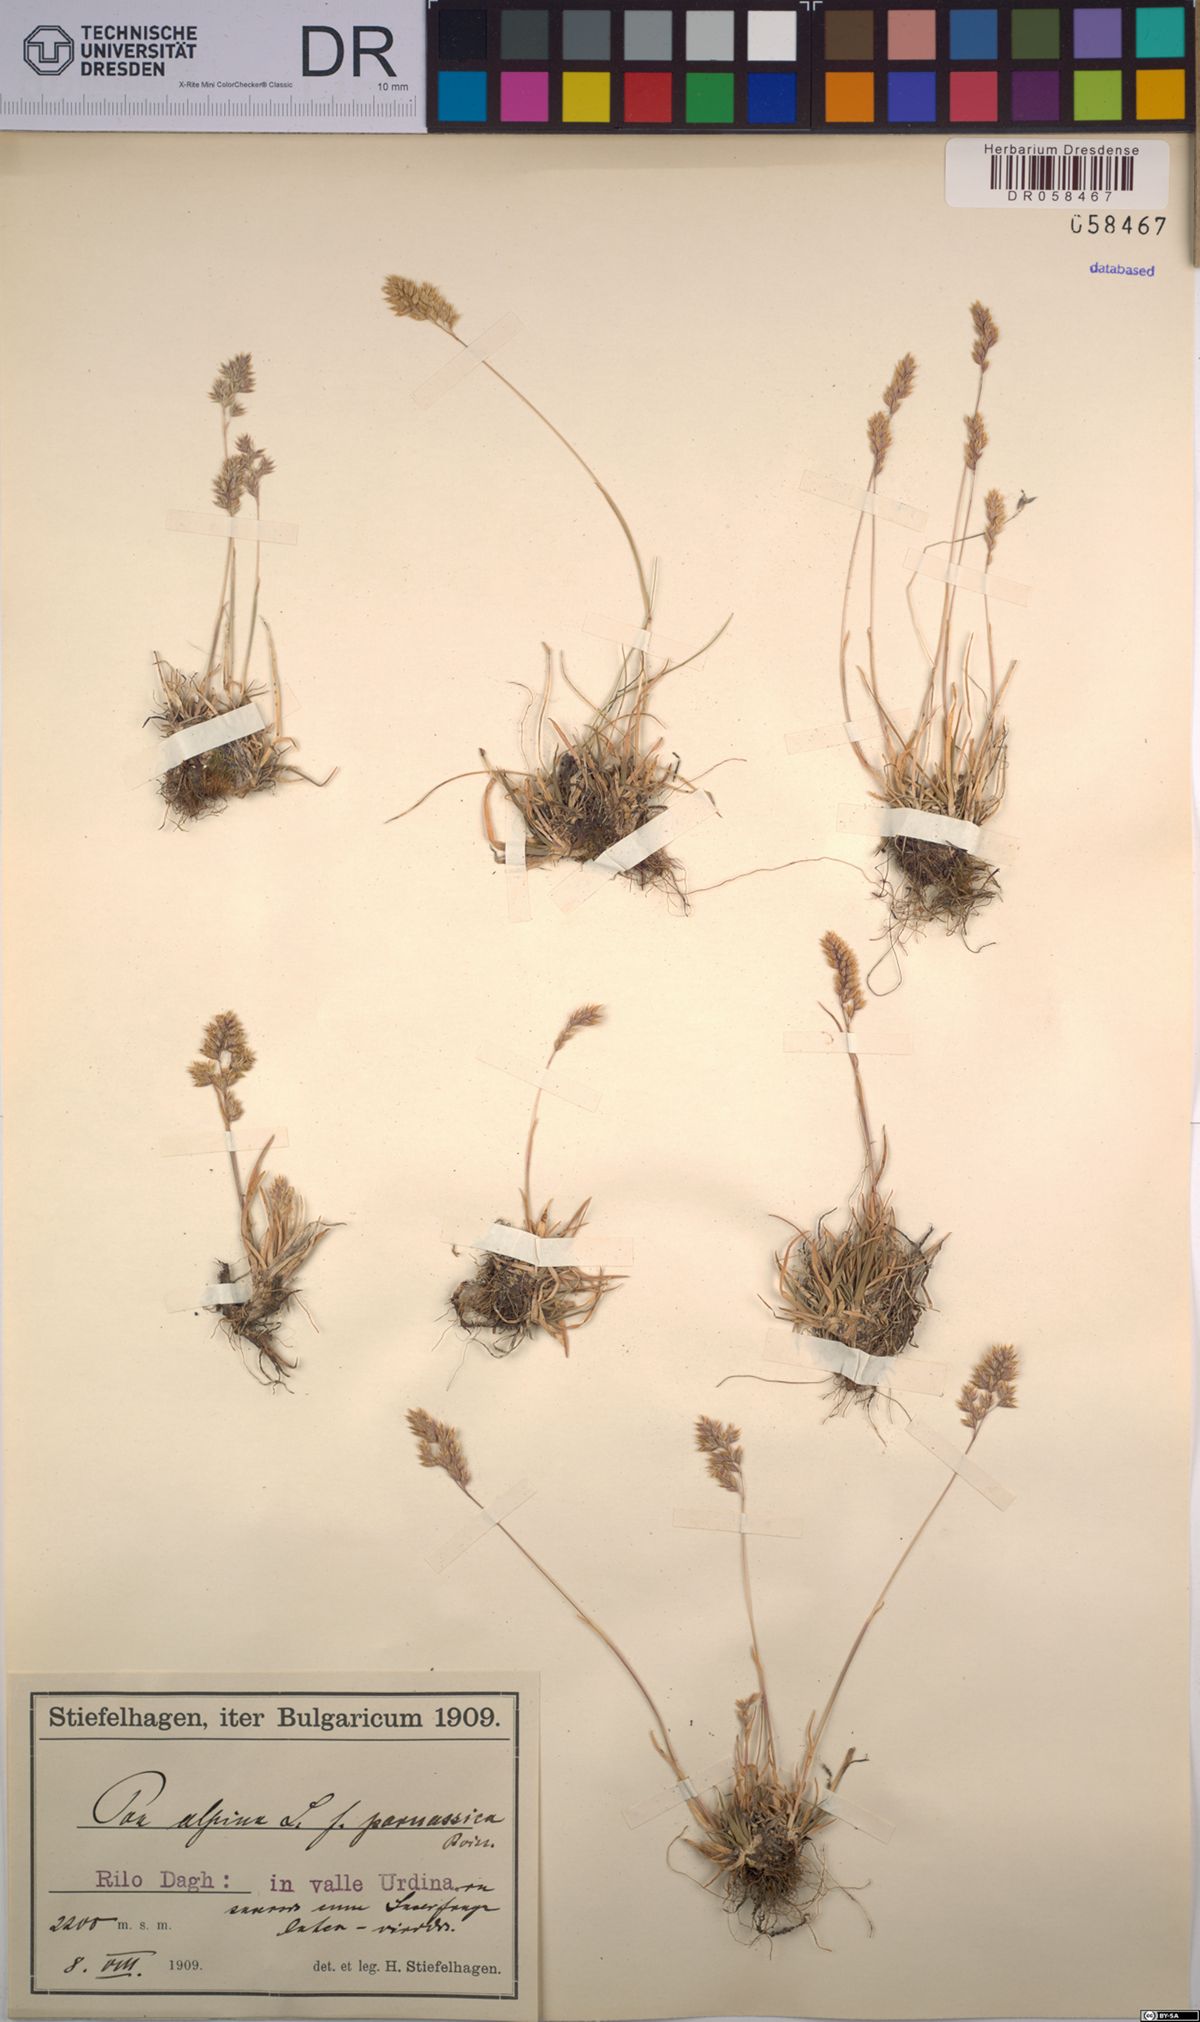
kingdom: Plantae
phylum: Tracheophyta
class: Liliopsida
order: Poales
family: Poaceae
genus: Poa
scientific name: Poa alpina
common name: Alpine bluegrass
